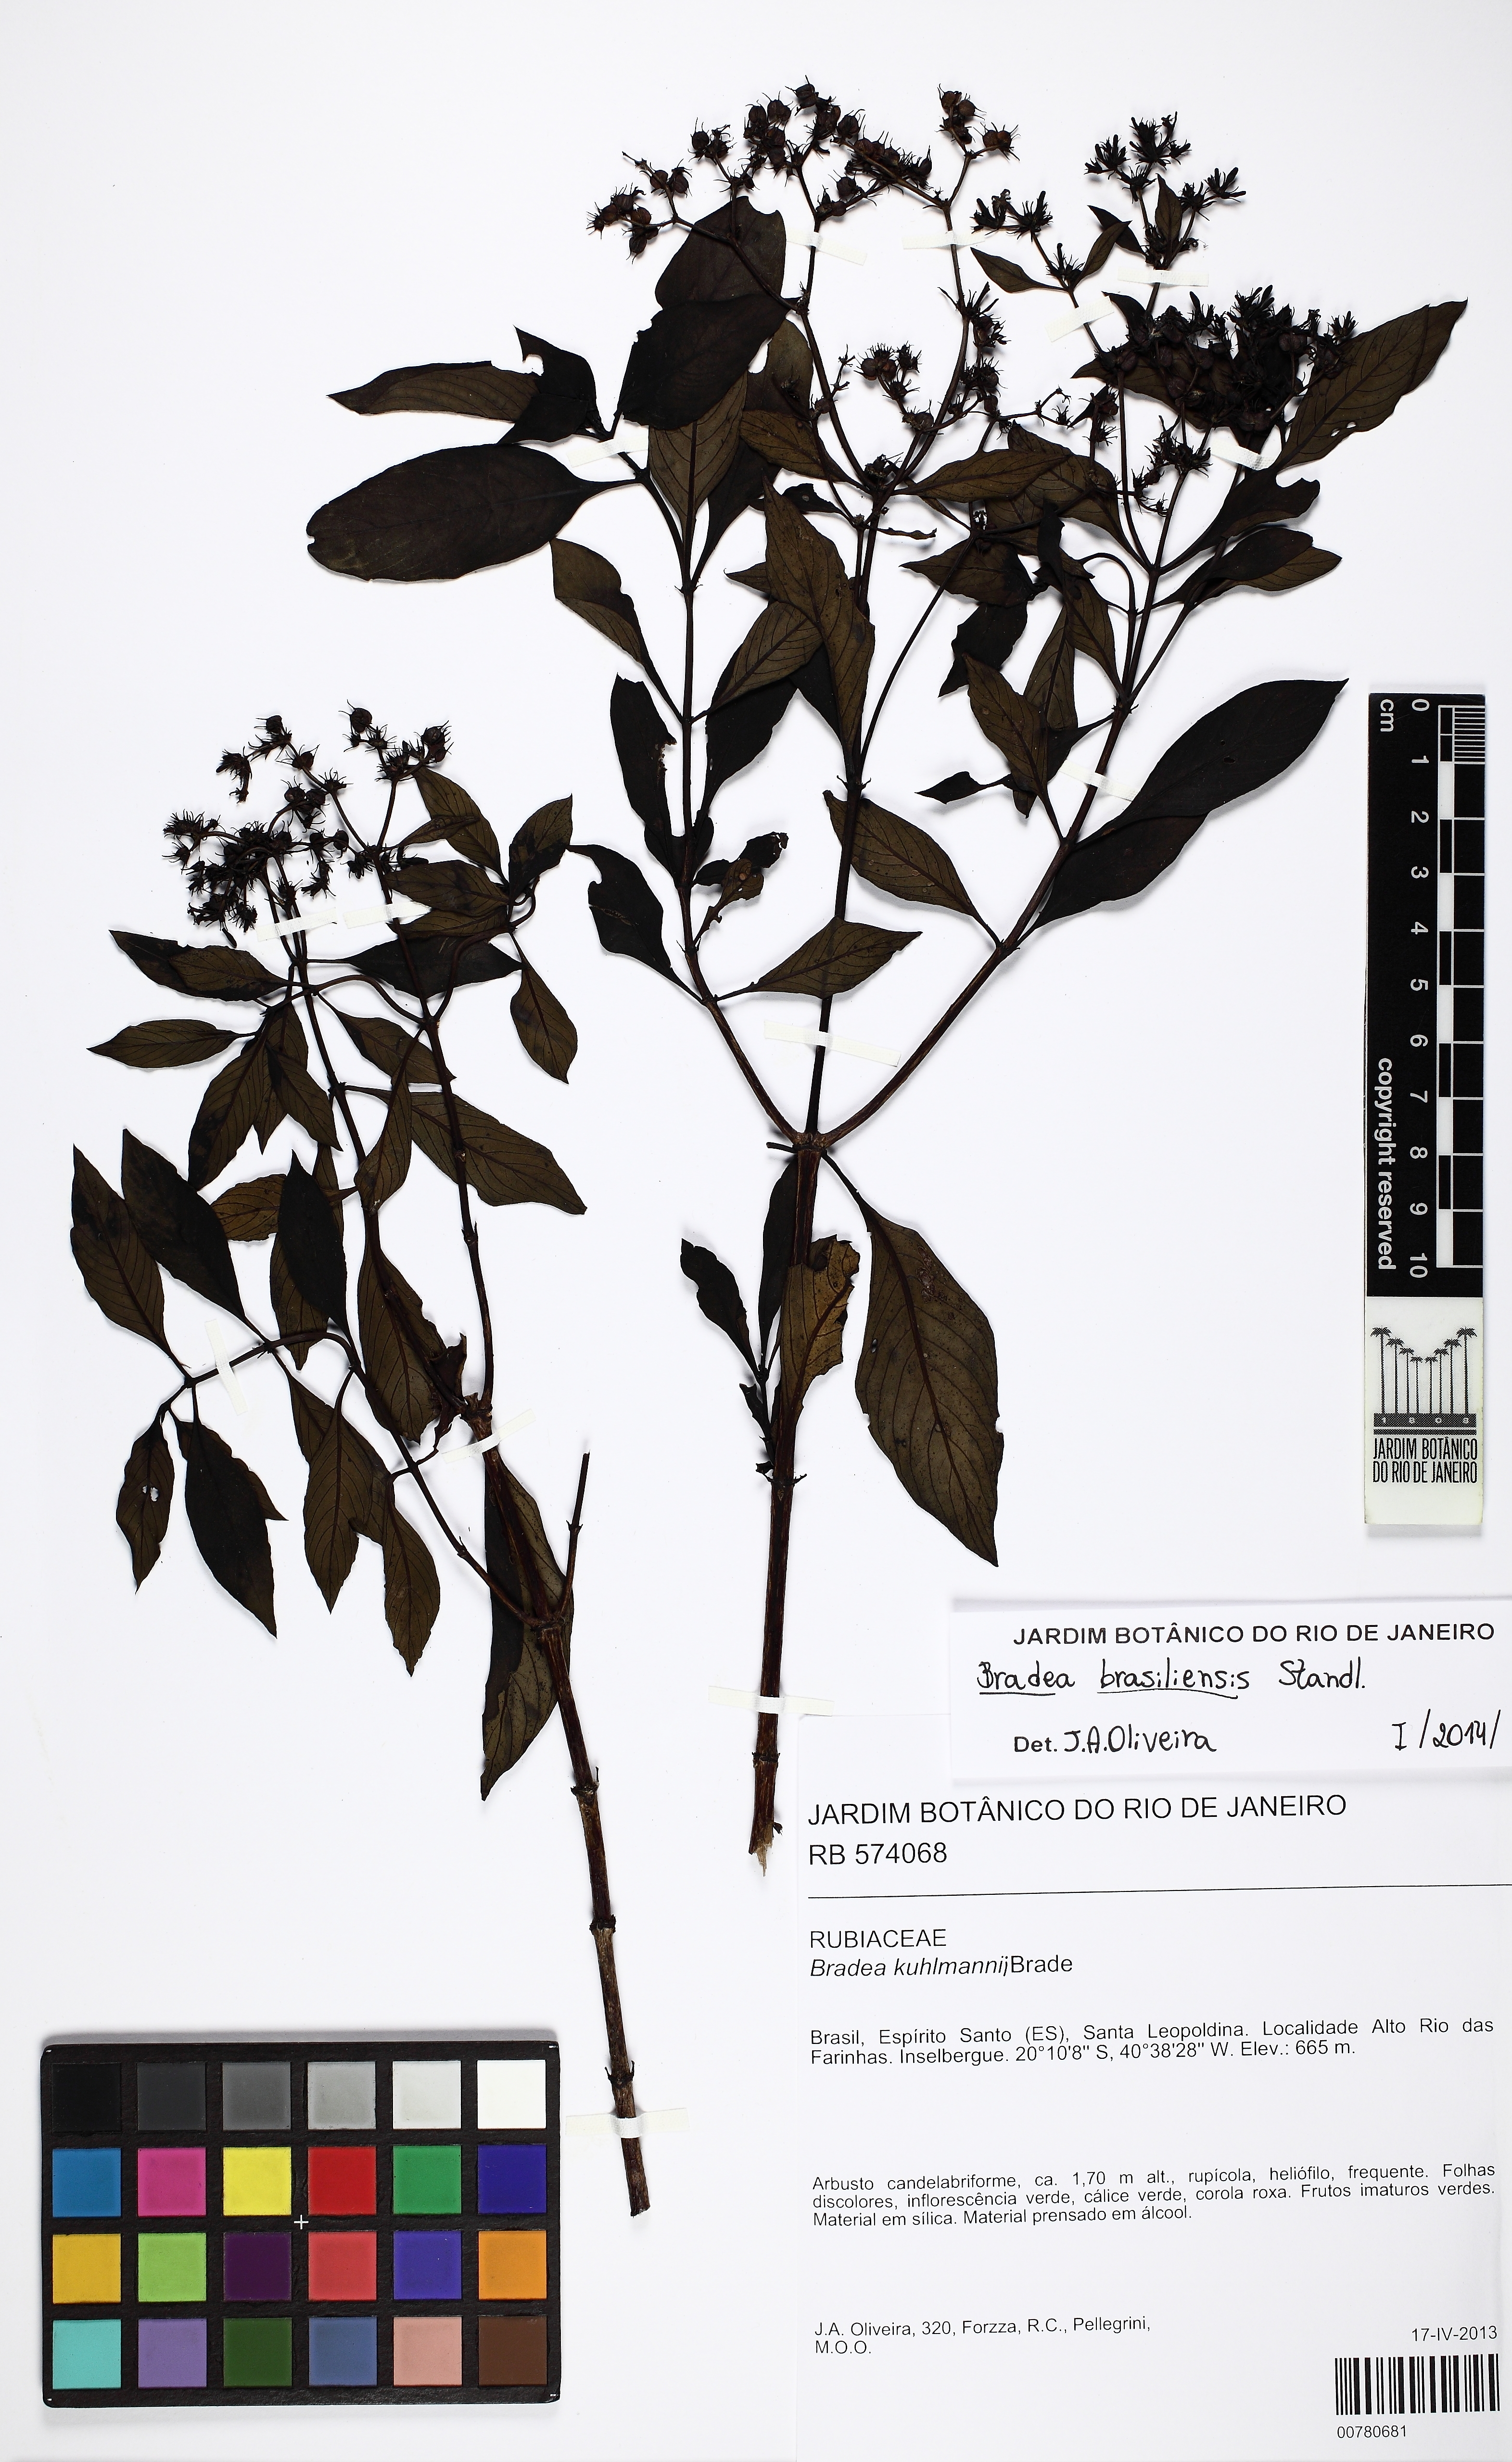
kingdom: Plantae
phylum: Tracheophyta
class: Magnoliopsida
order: Gentianales
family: Rubiaceae
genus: Bradea
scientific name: Bradea brasiliensis
